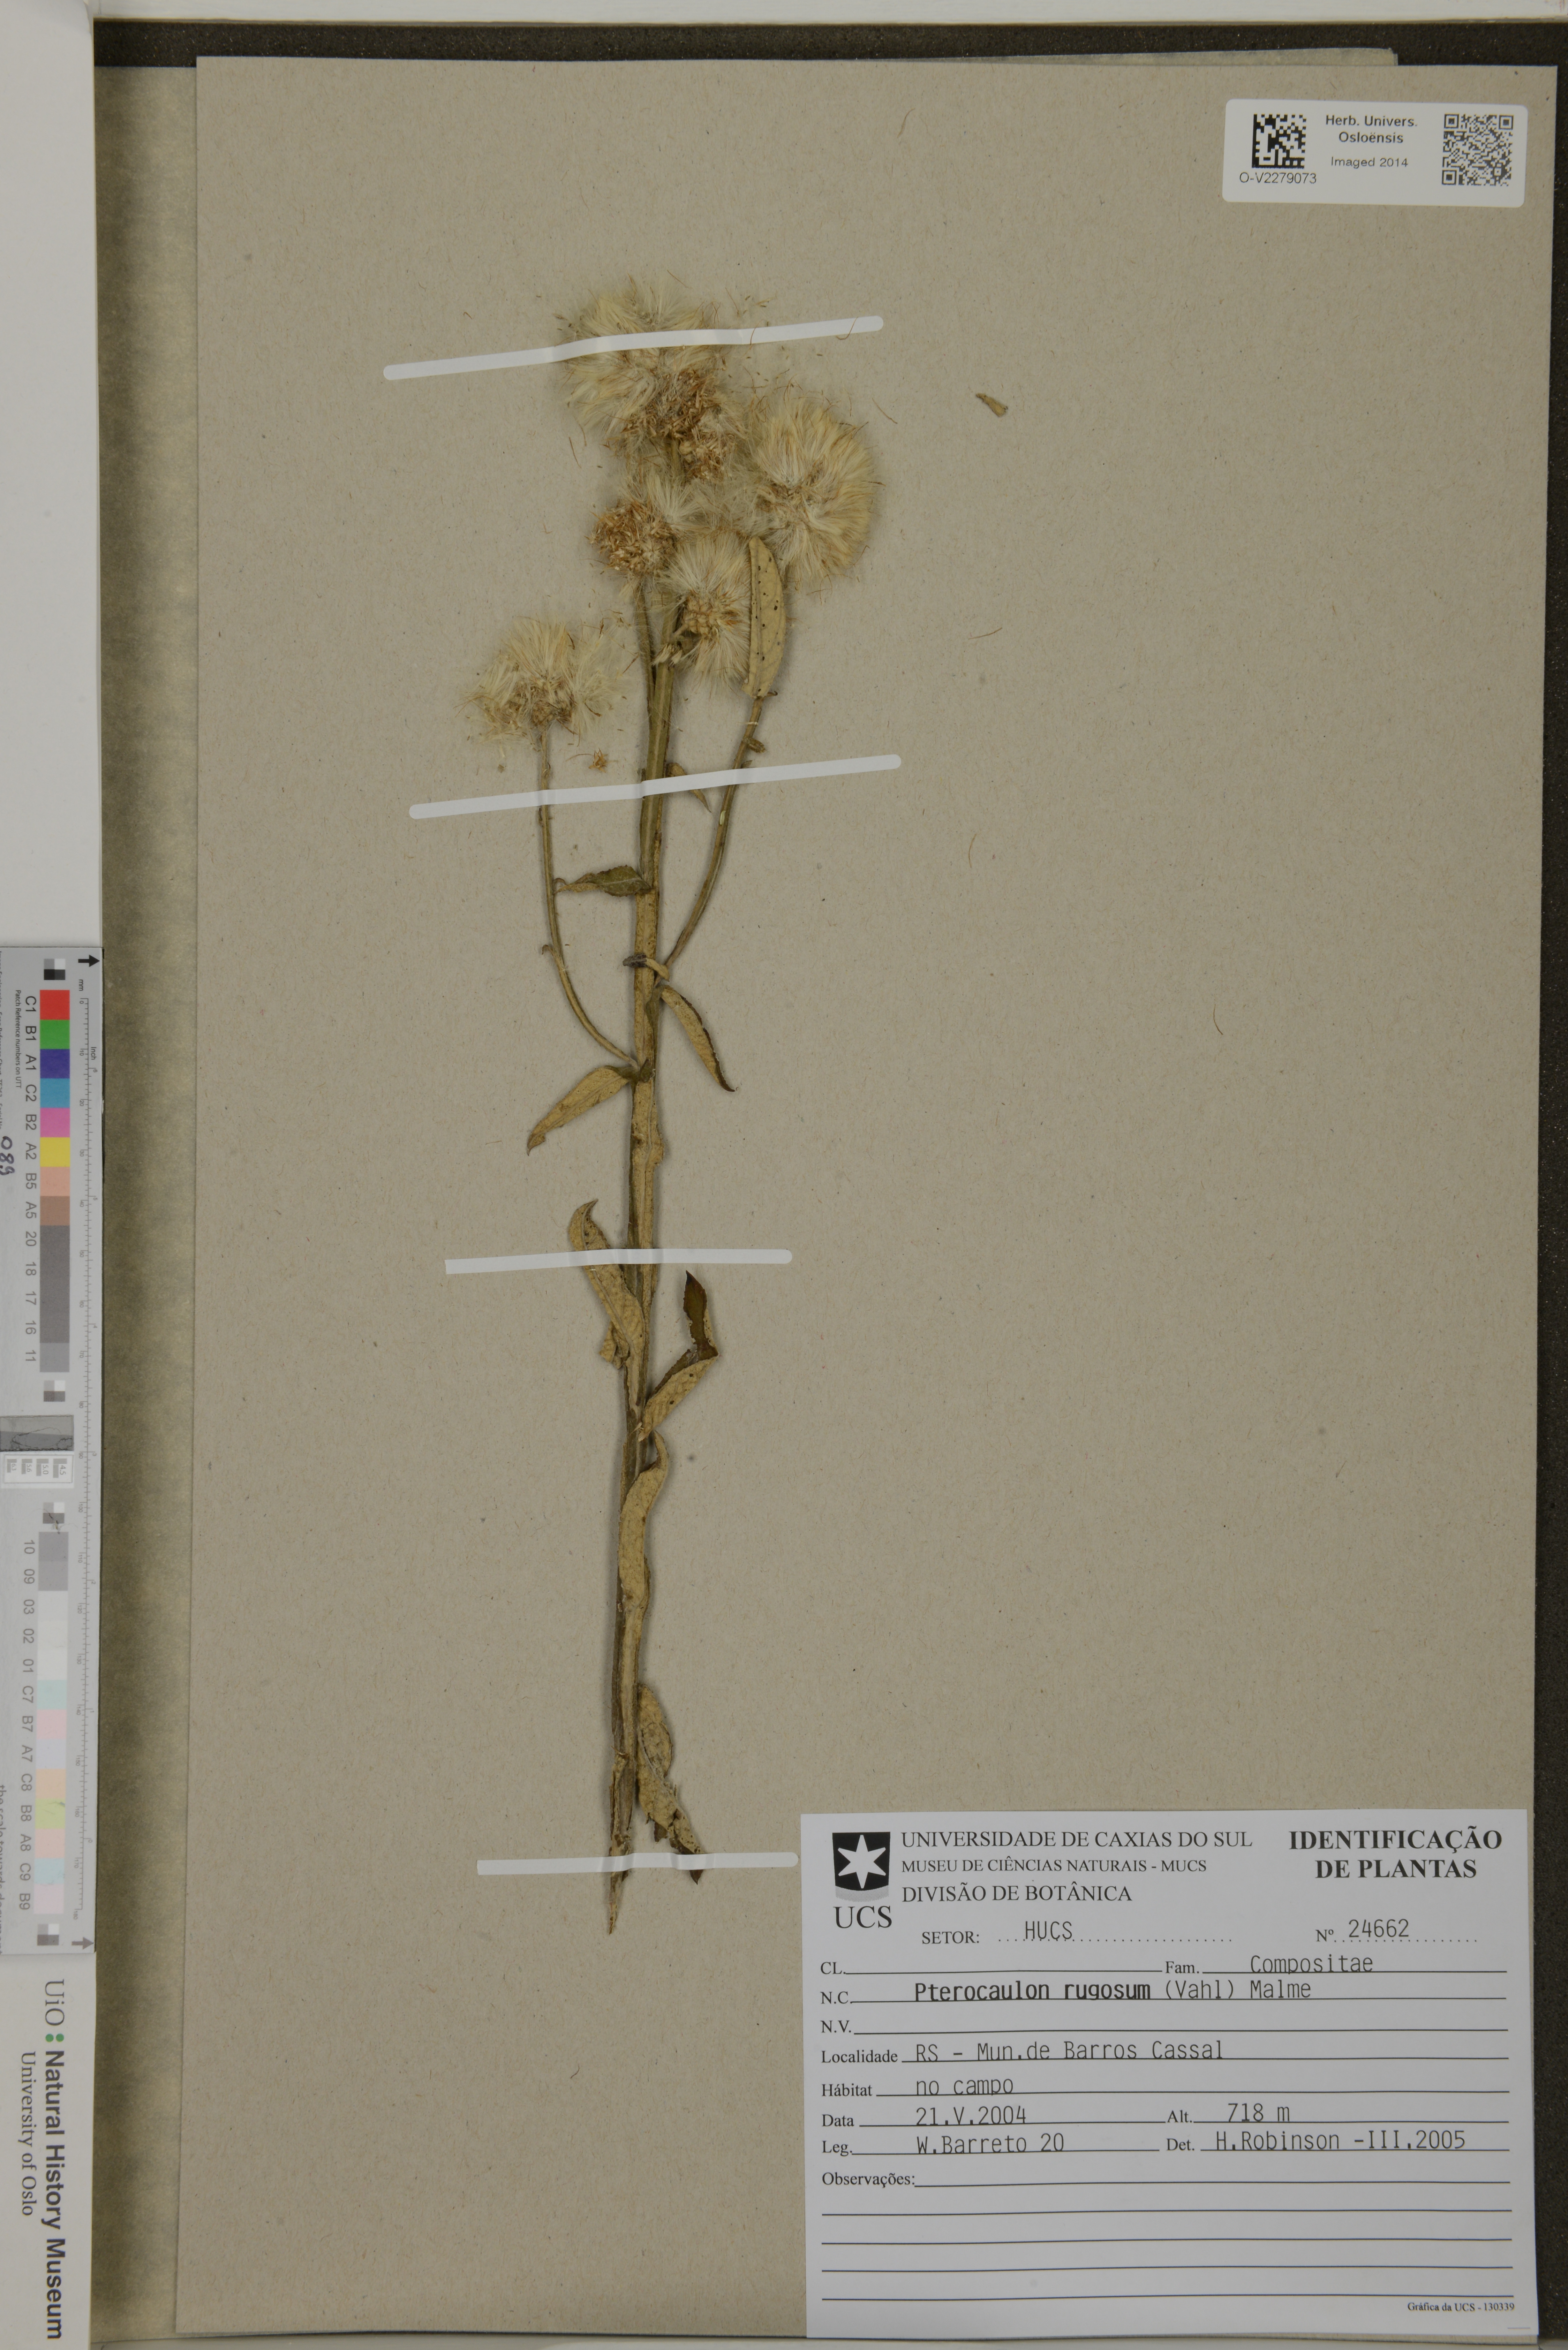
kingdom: Plantae
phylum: Tracheophyta
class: Magnoliopsida
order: Asterales
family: Asteraceae
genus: Pterocaulon
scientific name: Pterocaulon rugosum
